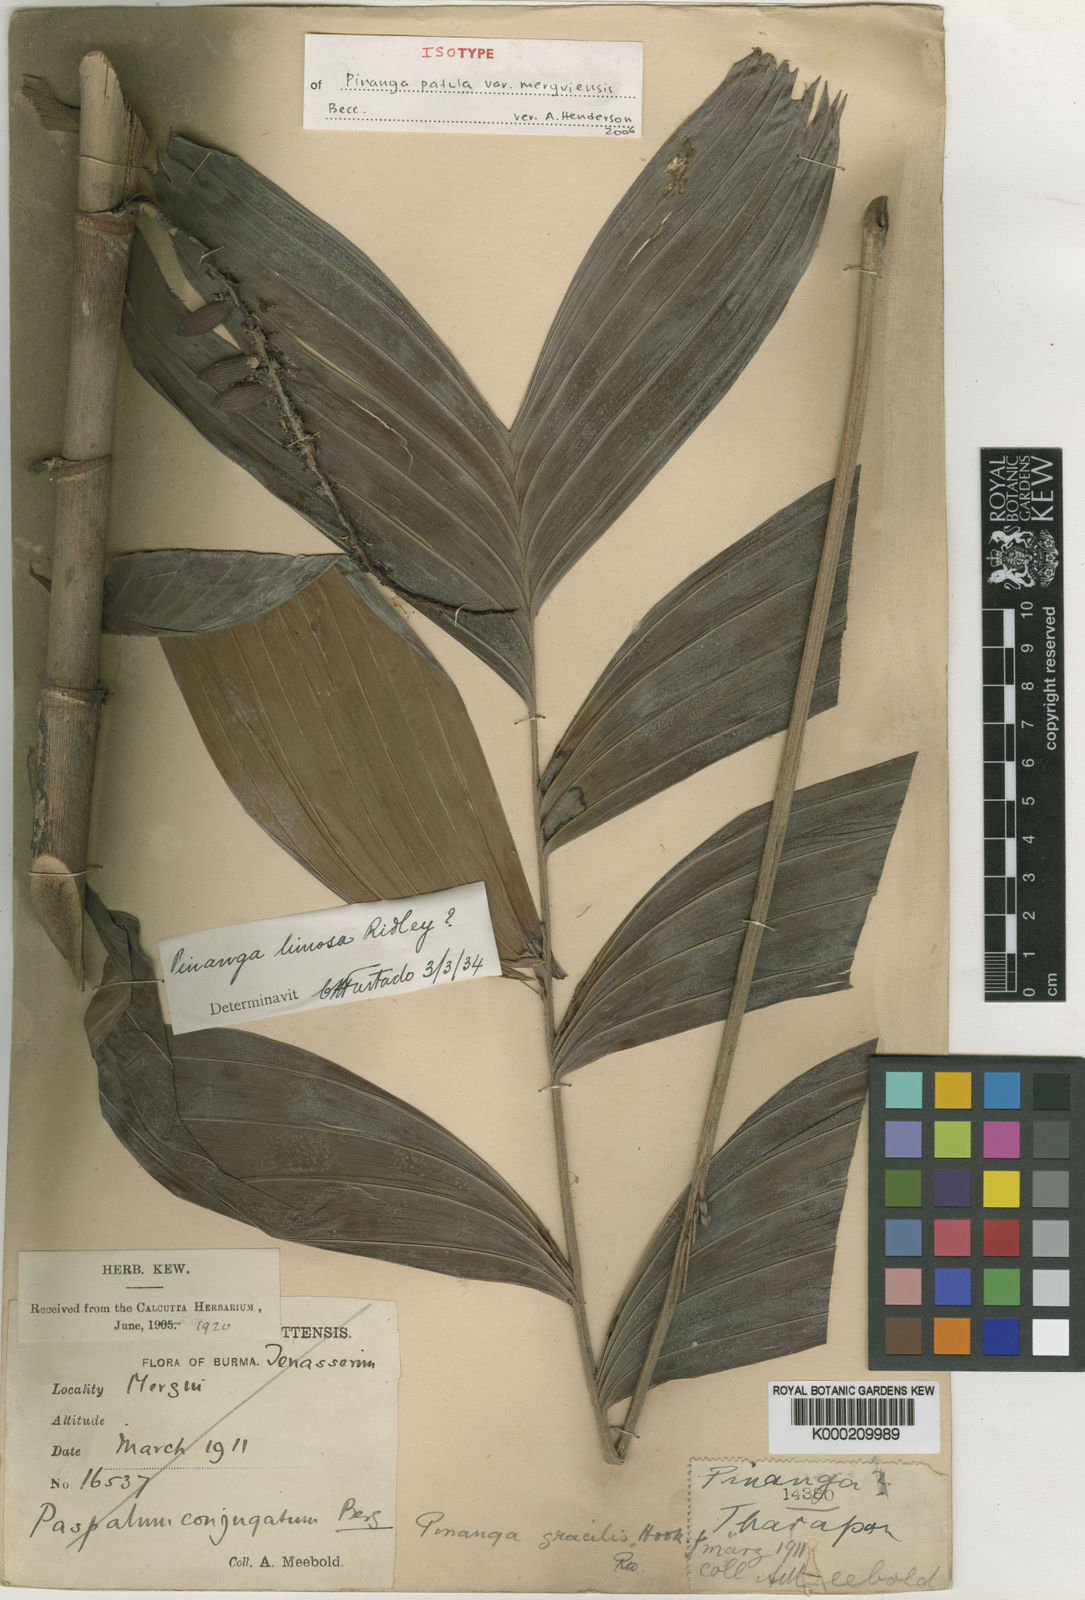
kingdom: Plantae
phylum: Tracheophyta
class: Liliopsida
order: Arecales
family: Arecaceae
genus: Pinanga
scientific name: Pinanga patula
